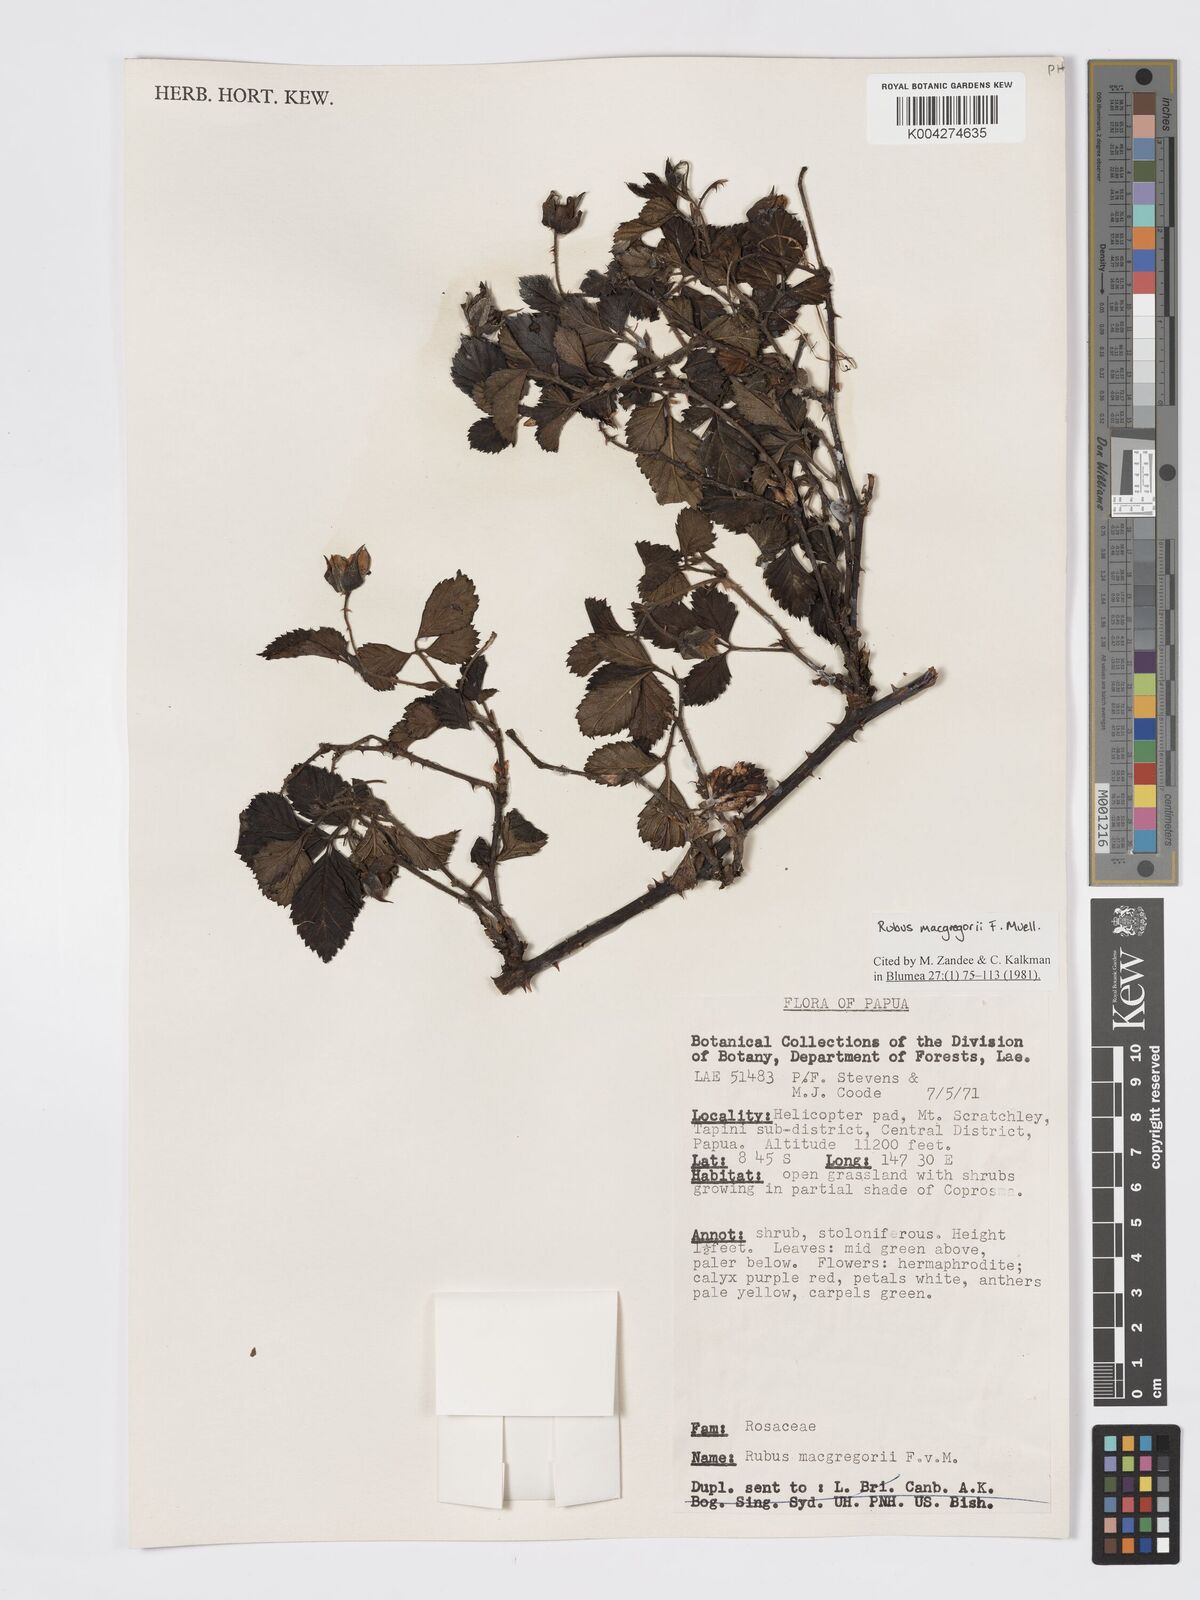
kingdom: Plantae
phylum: Tracheophyta
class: Magnoliopsida
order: Rosales
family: Rosaceae
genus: Rubus
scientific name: Rubus macgregorii
